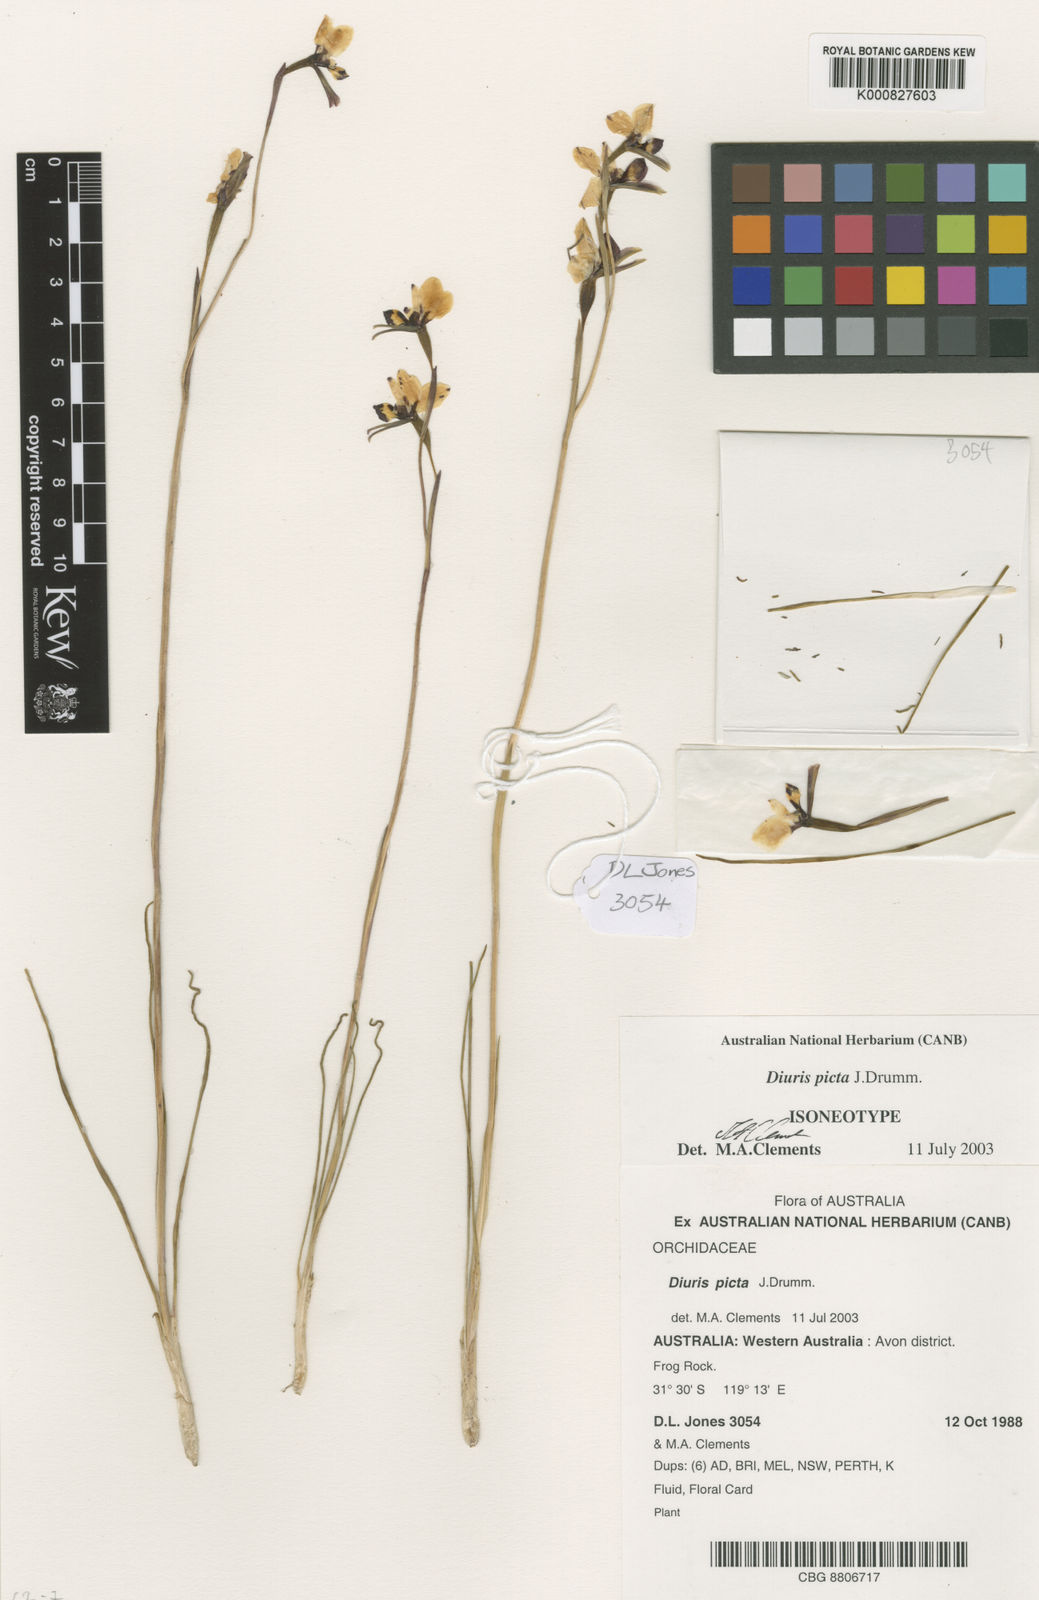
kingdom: Plantae
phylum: Tracheophyta
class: Liliopsida
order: Asparagales
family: Orchidaceae
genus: Diuris
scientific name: Diuris picta
